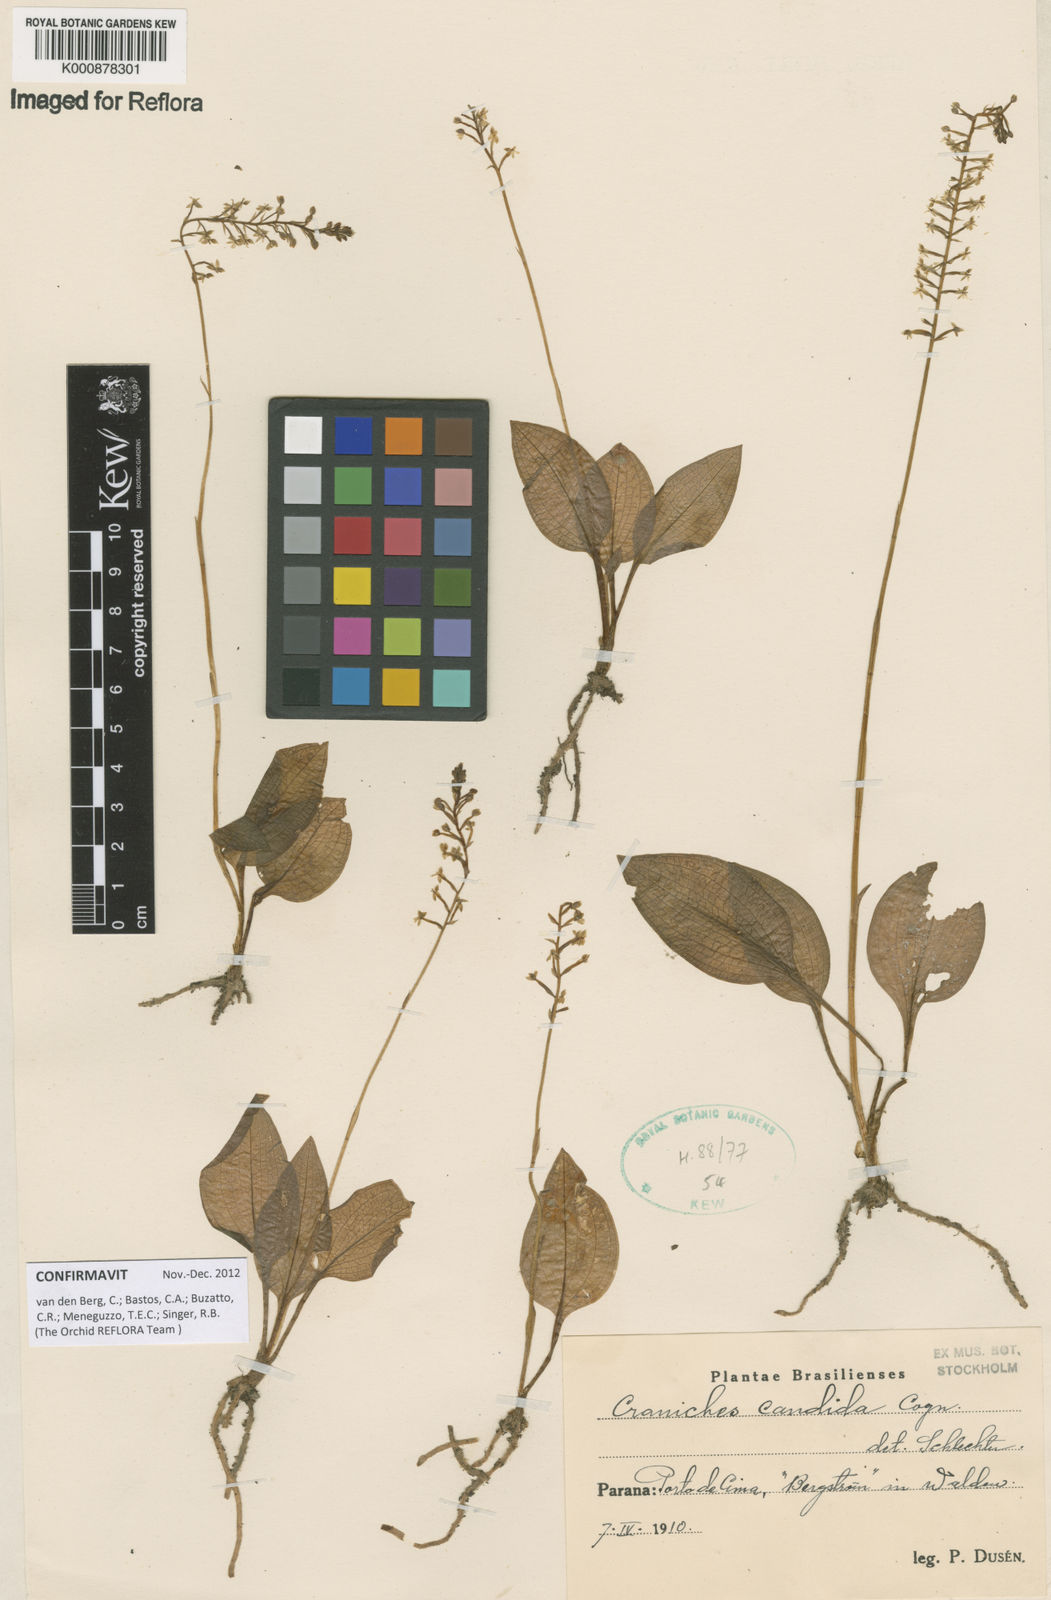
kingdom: Plantae
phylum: Tracheophyta
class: Liliopsida
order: Asparagales
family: Orchidaceae
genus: Cranichis
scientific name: Cranichis candida
